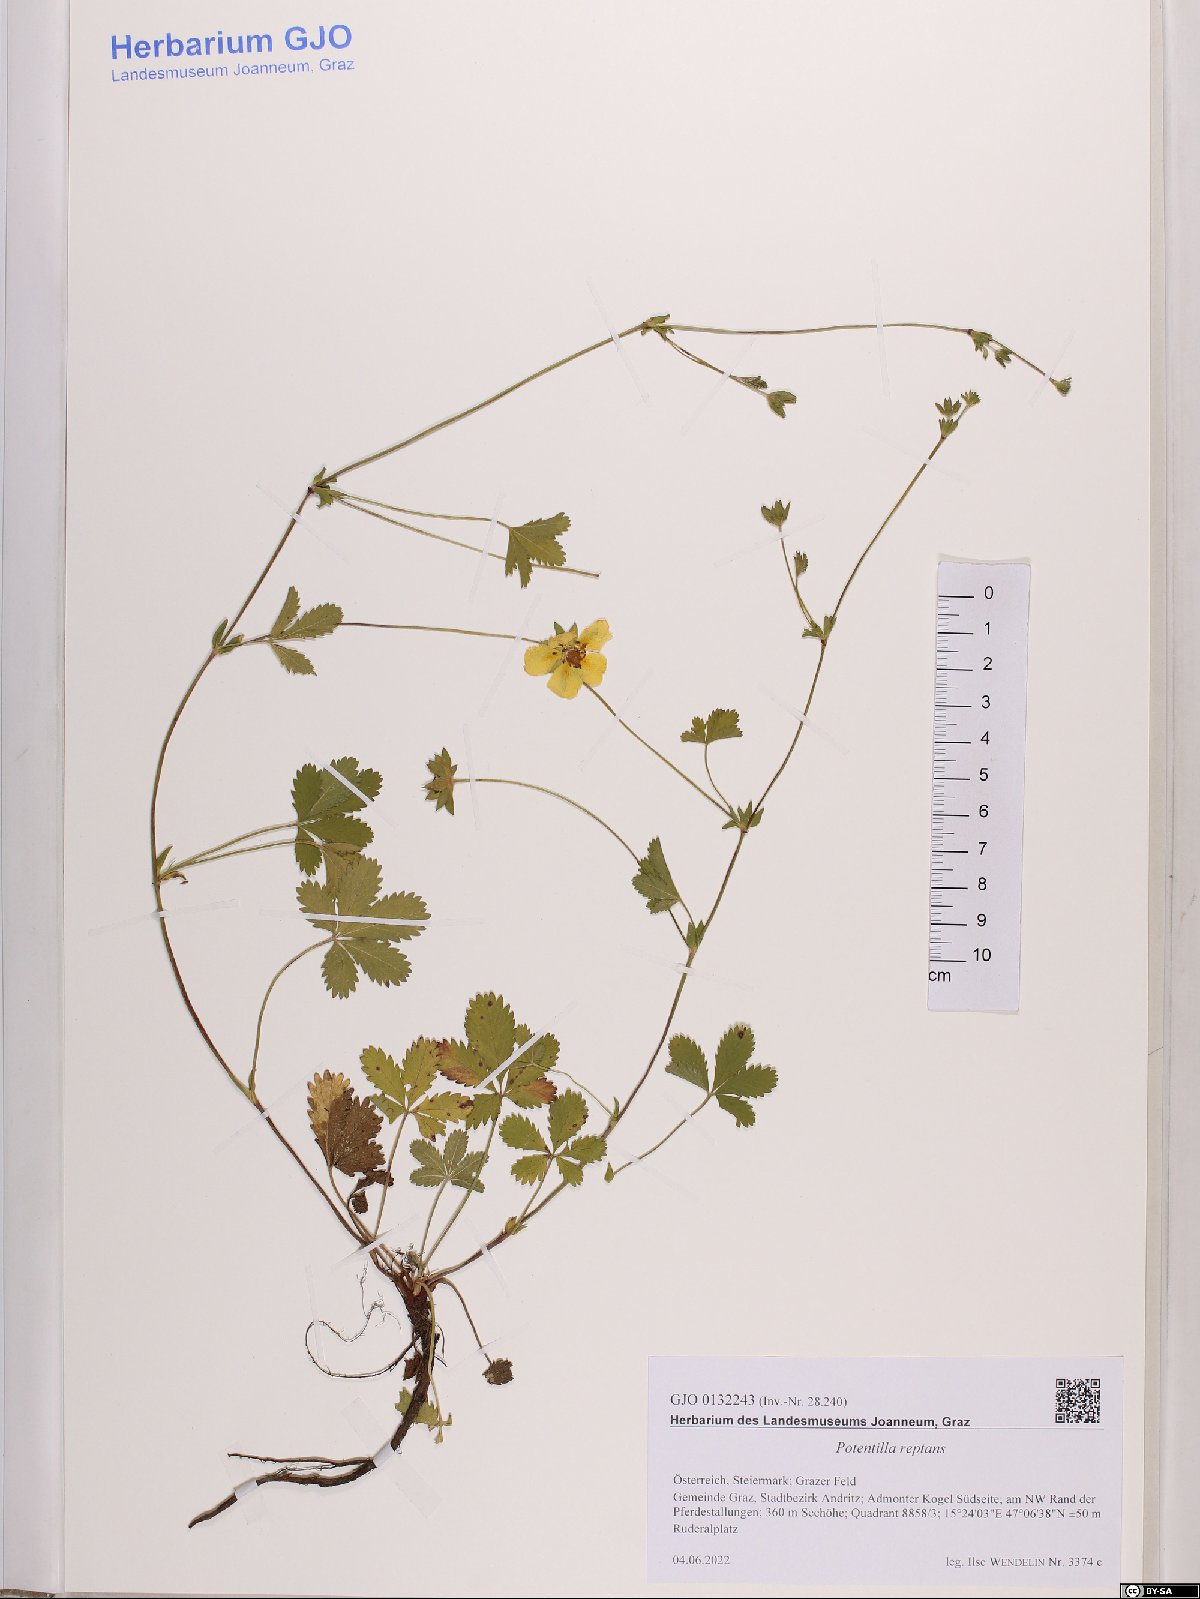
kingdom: Plantae
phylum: Tracheophyta
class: Magnoliopsida
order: Rosales
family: Rosaceae
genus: Potentilla
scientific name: Potentilla reptans
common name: Creeping cinquefoil
